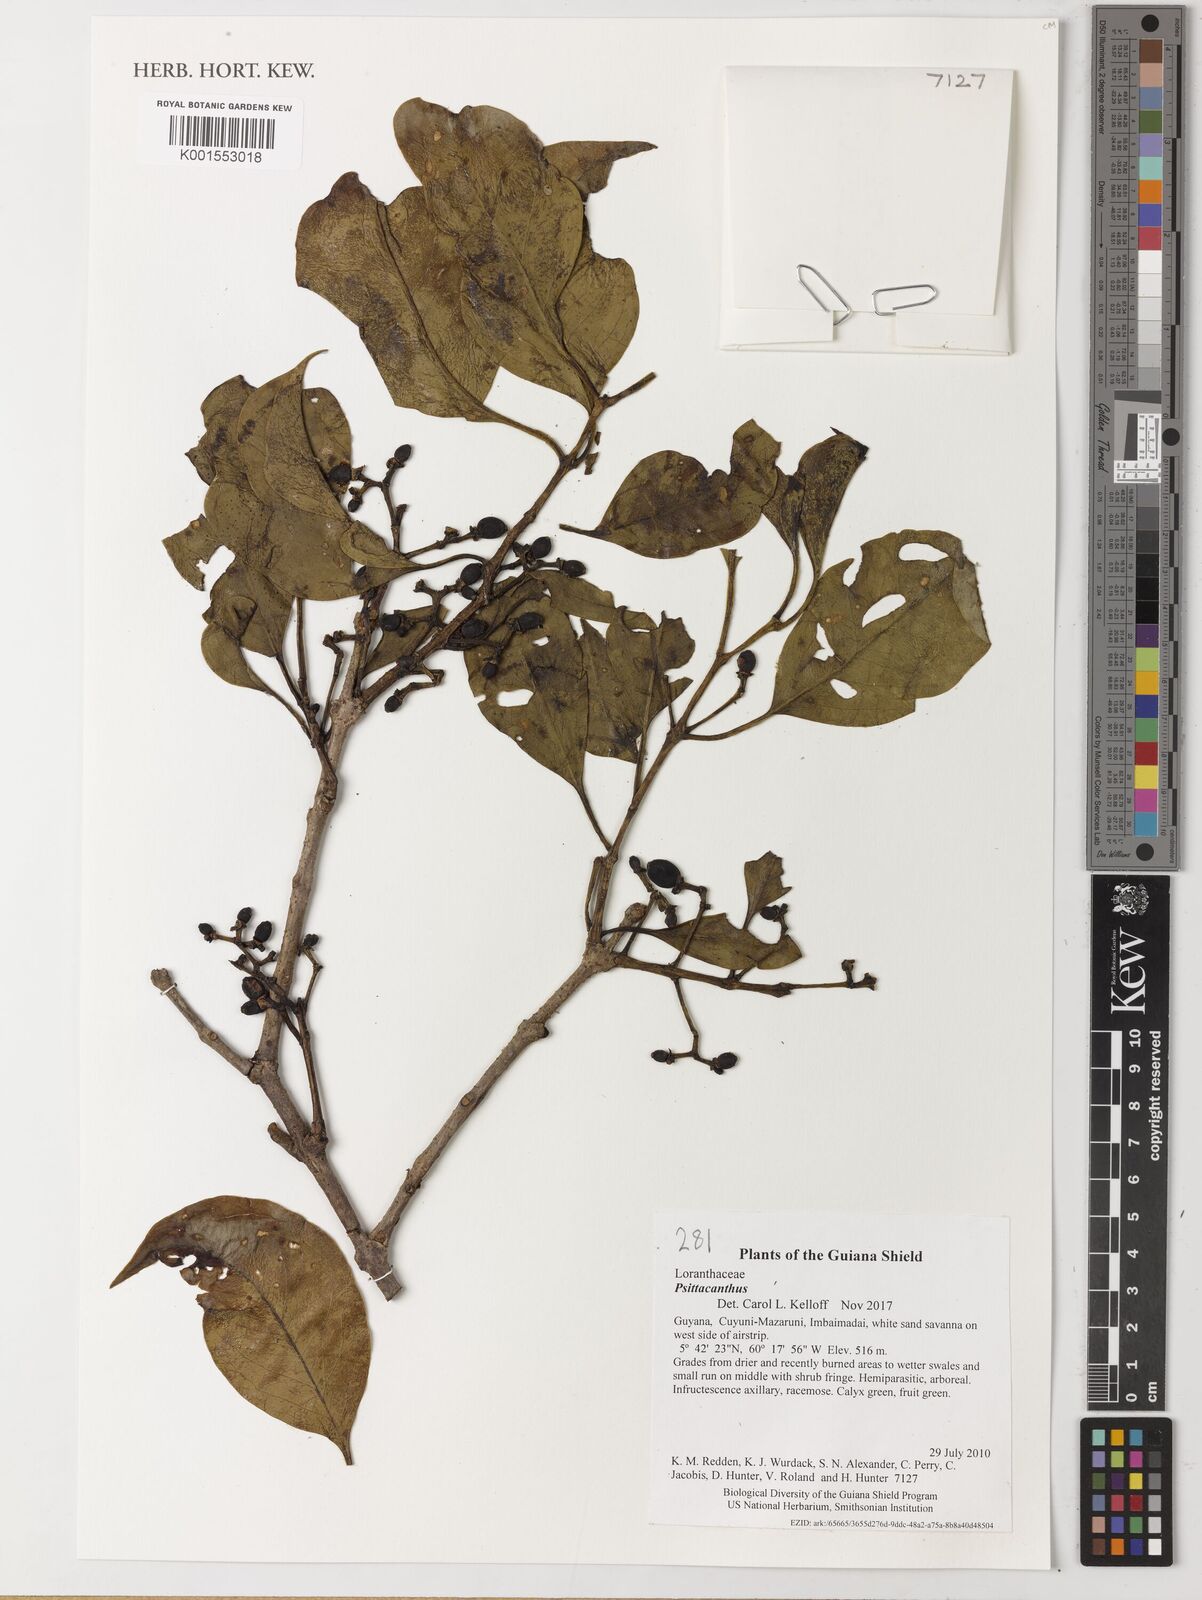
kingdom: Plantae
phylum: Tracheophyta
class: Magnoliopsida
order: Santalales
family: Loranthaceae
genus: Psittacanthus
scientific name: Psittacanthus
